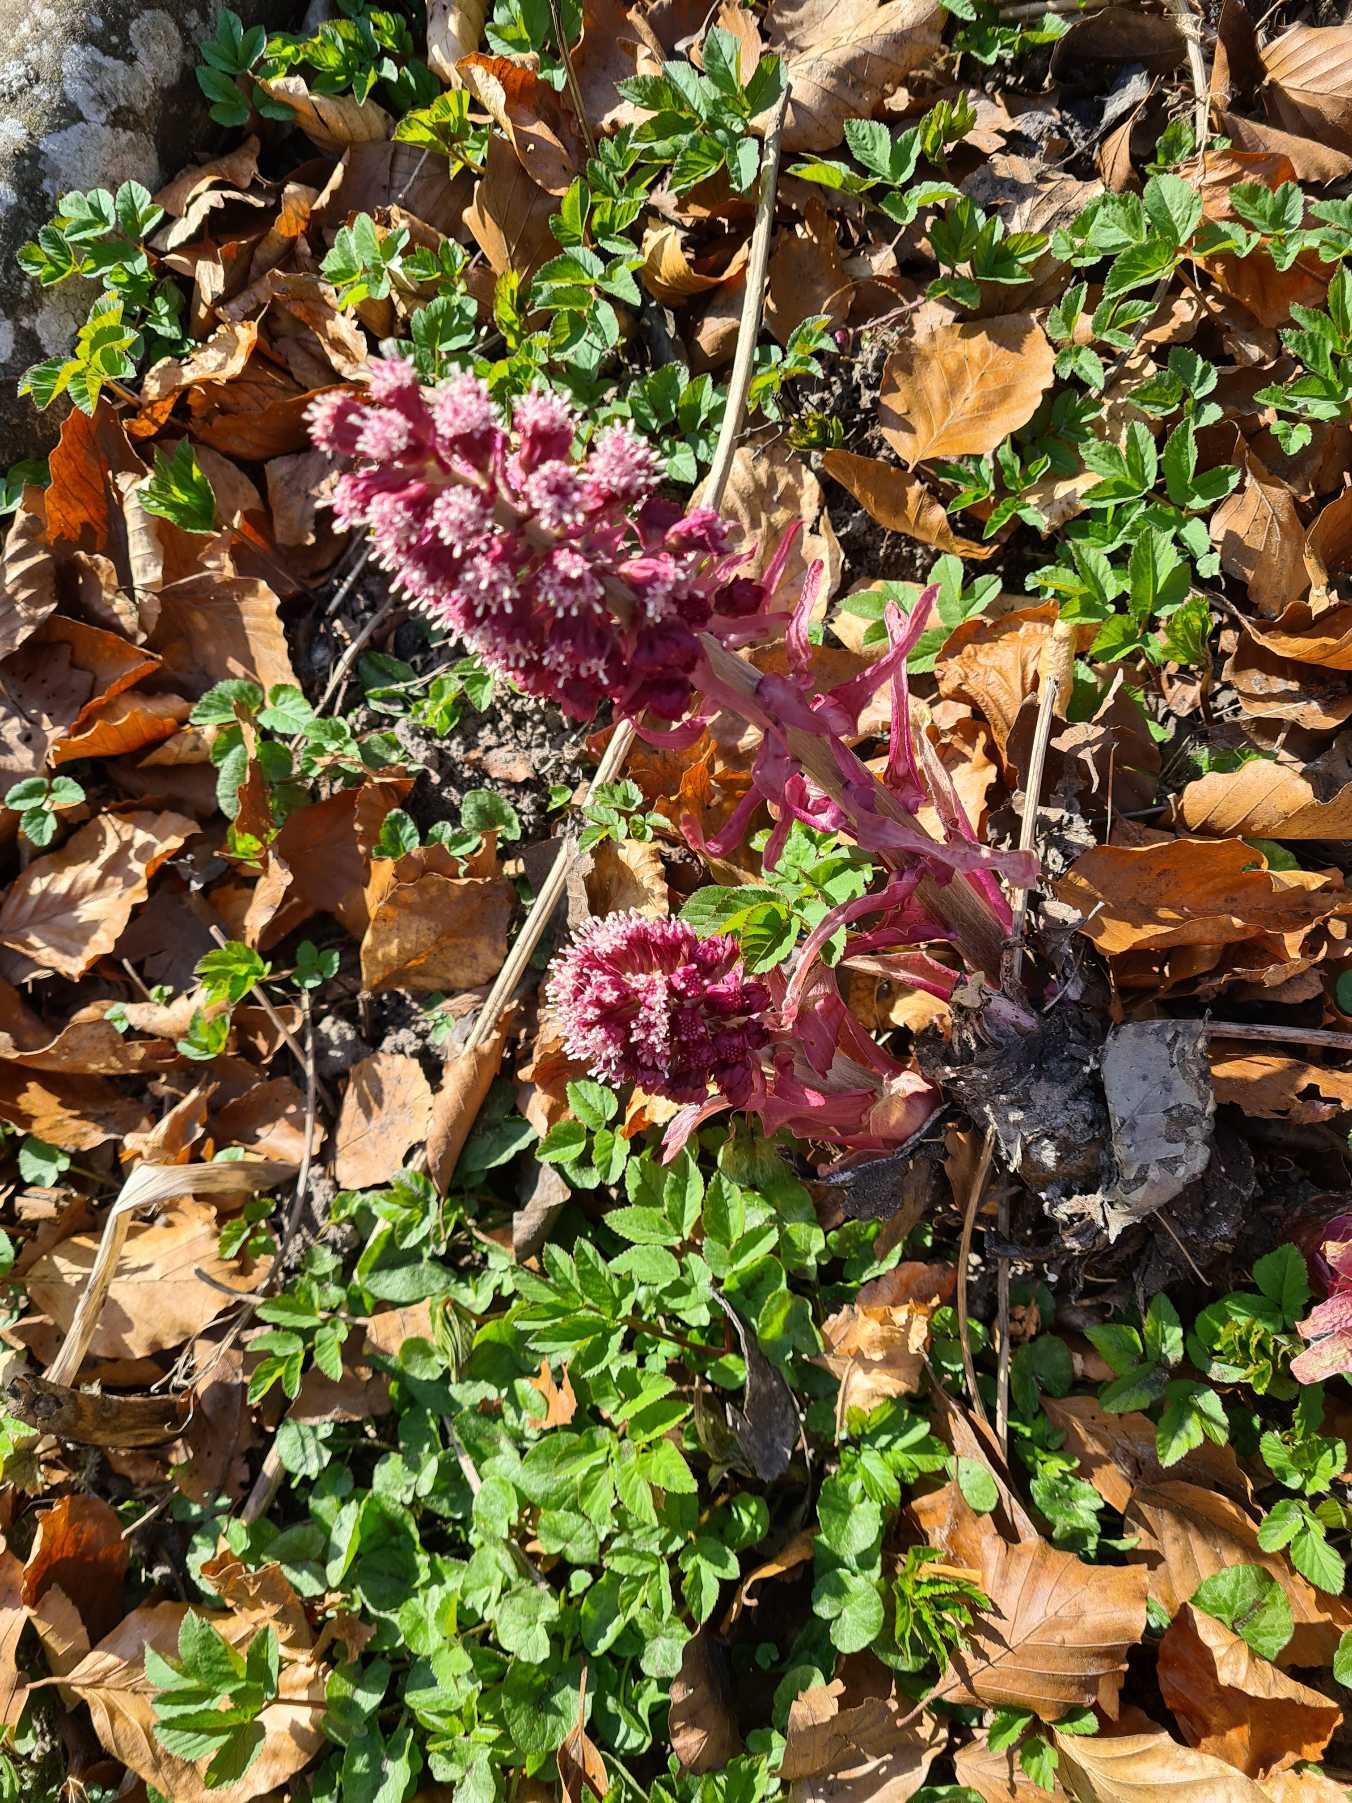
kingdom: Plantae
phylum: Tracheophyta
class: Magnoliopsida
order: Asterales
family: Asteraceae
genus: Petasites
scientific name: Petasites hybridus
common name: Rød hestehov
